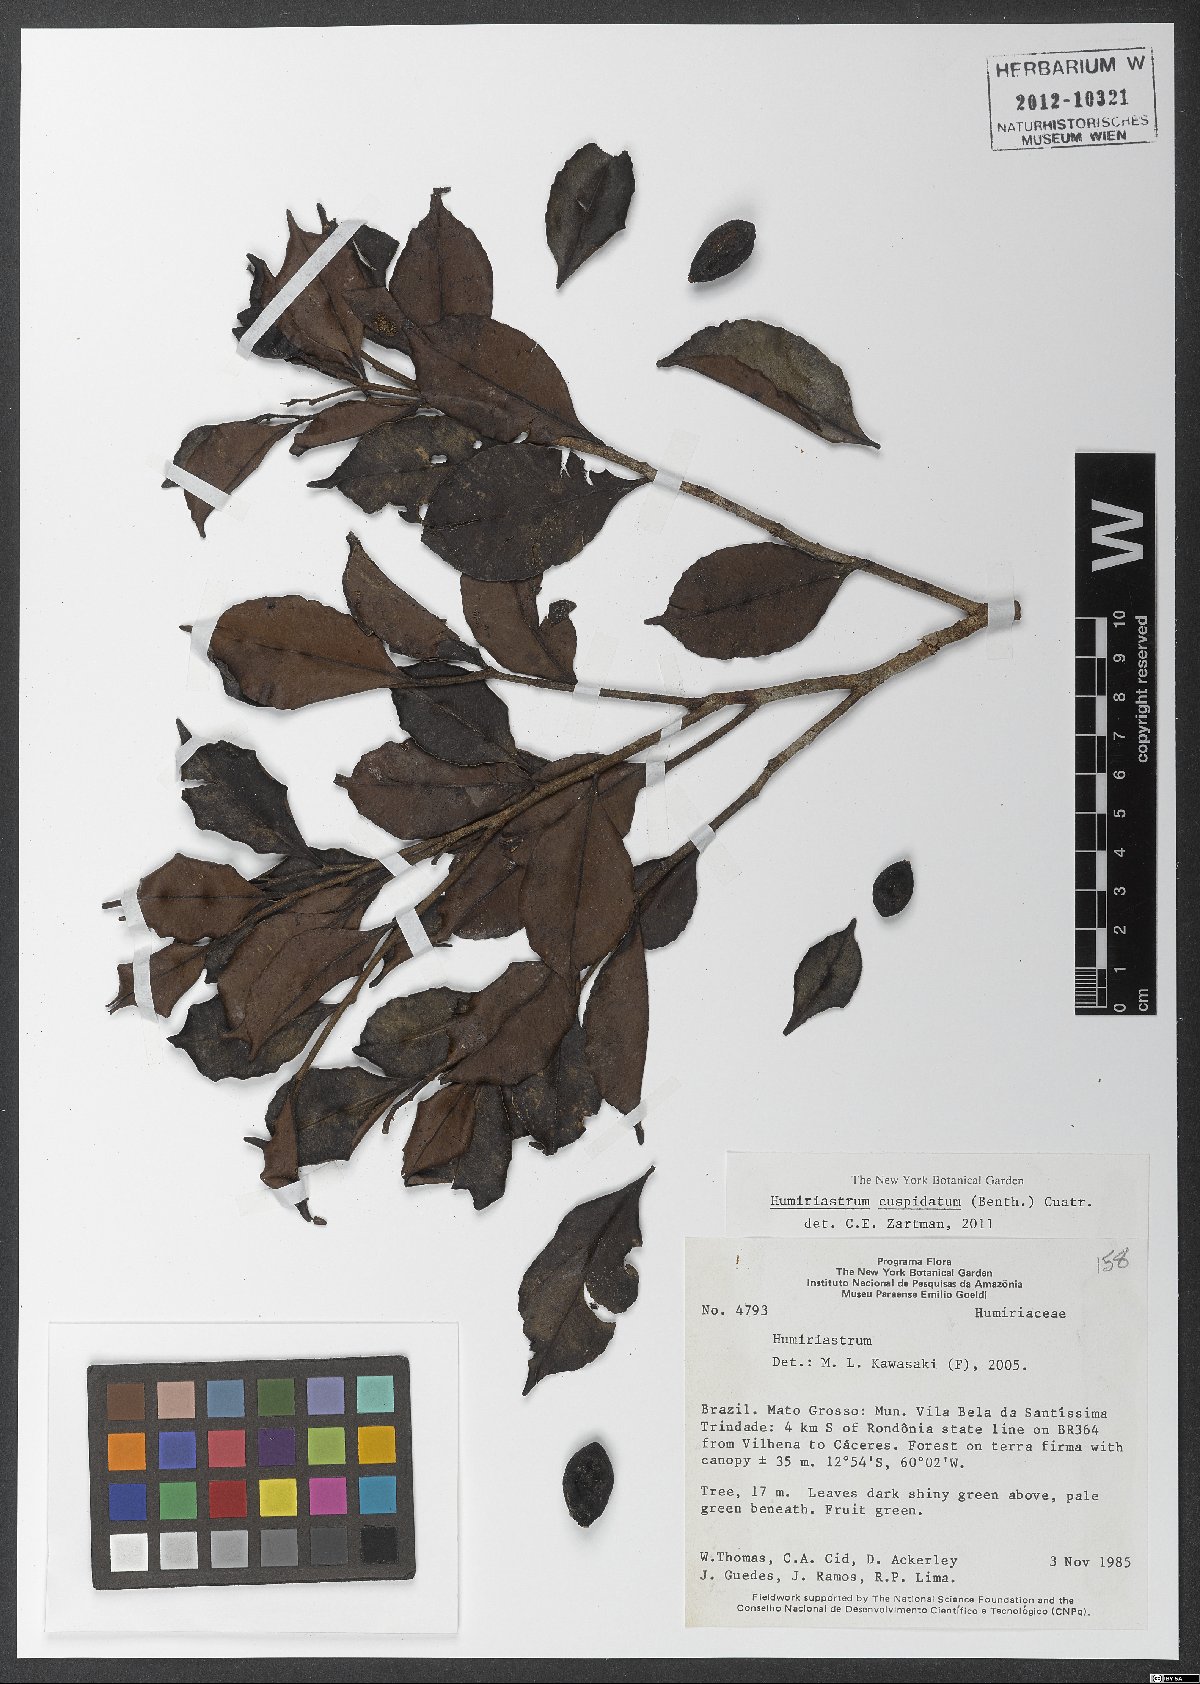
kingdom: Plantae
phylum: Tracheophyta
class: Magnoliopsida
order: Malpighiales
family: Humiriaceae
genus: Humiriastrum
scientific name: Humiriastrum cuspidatum
